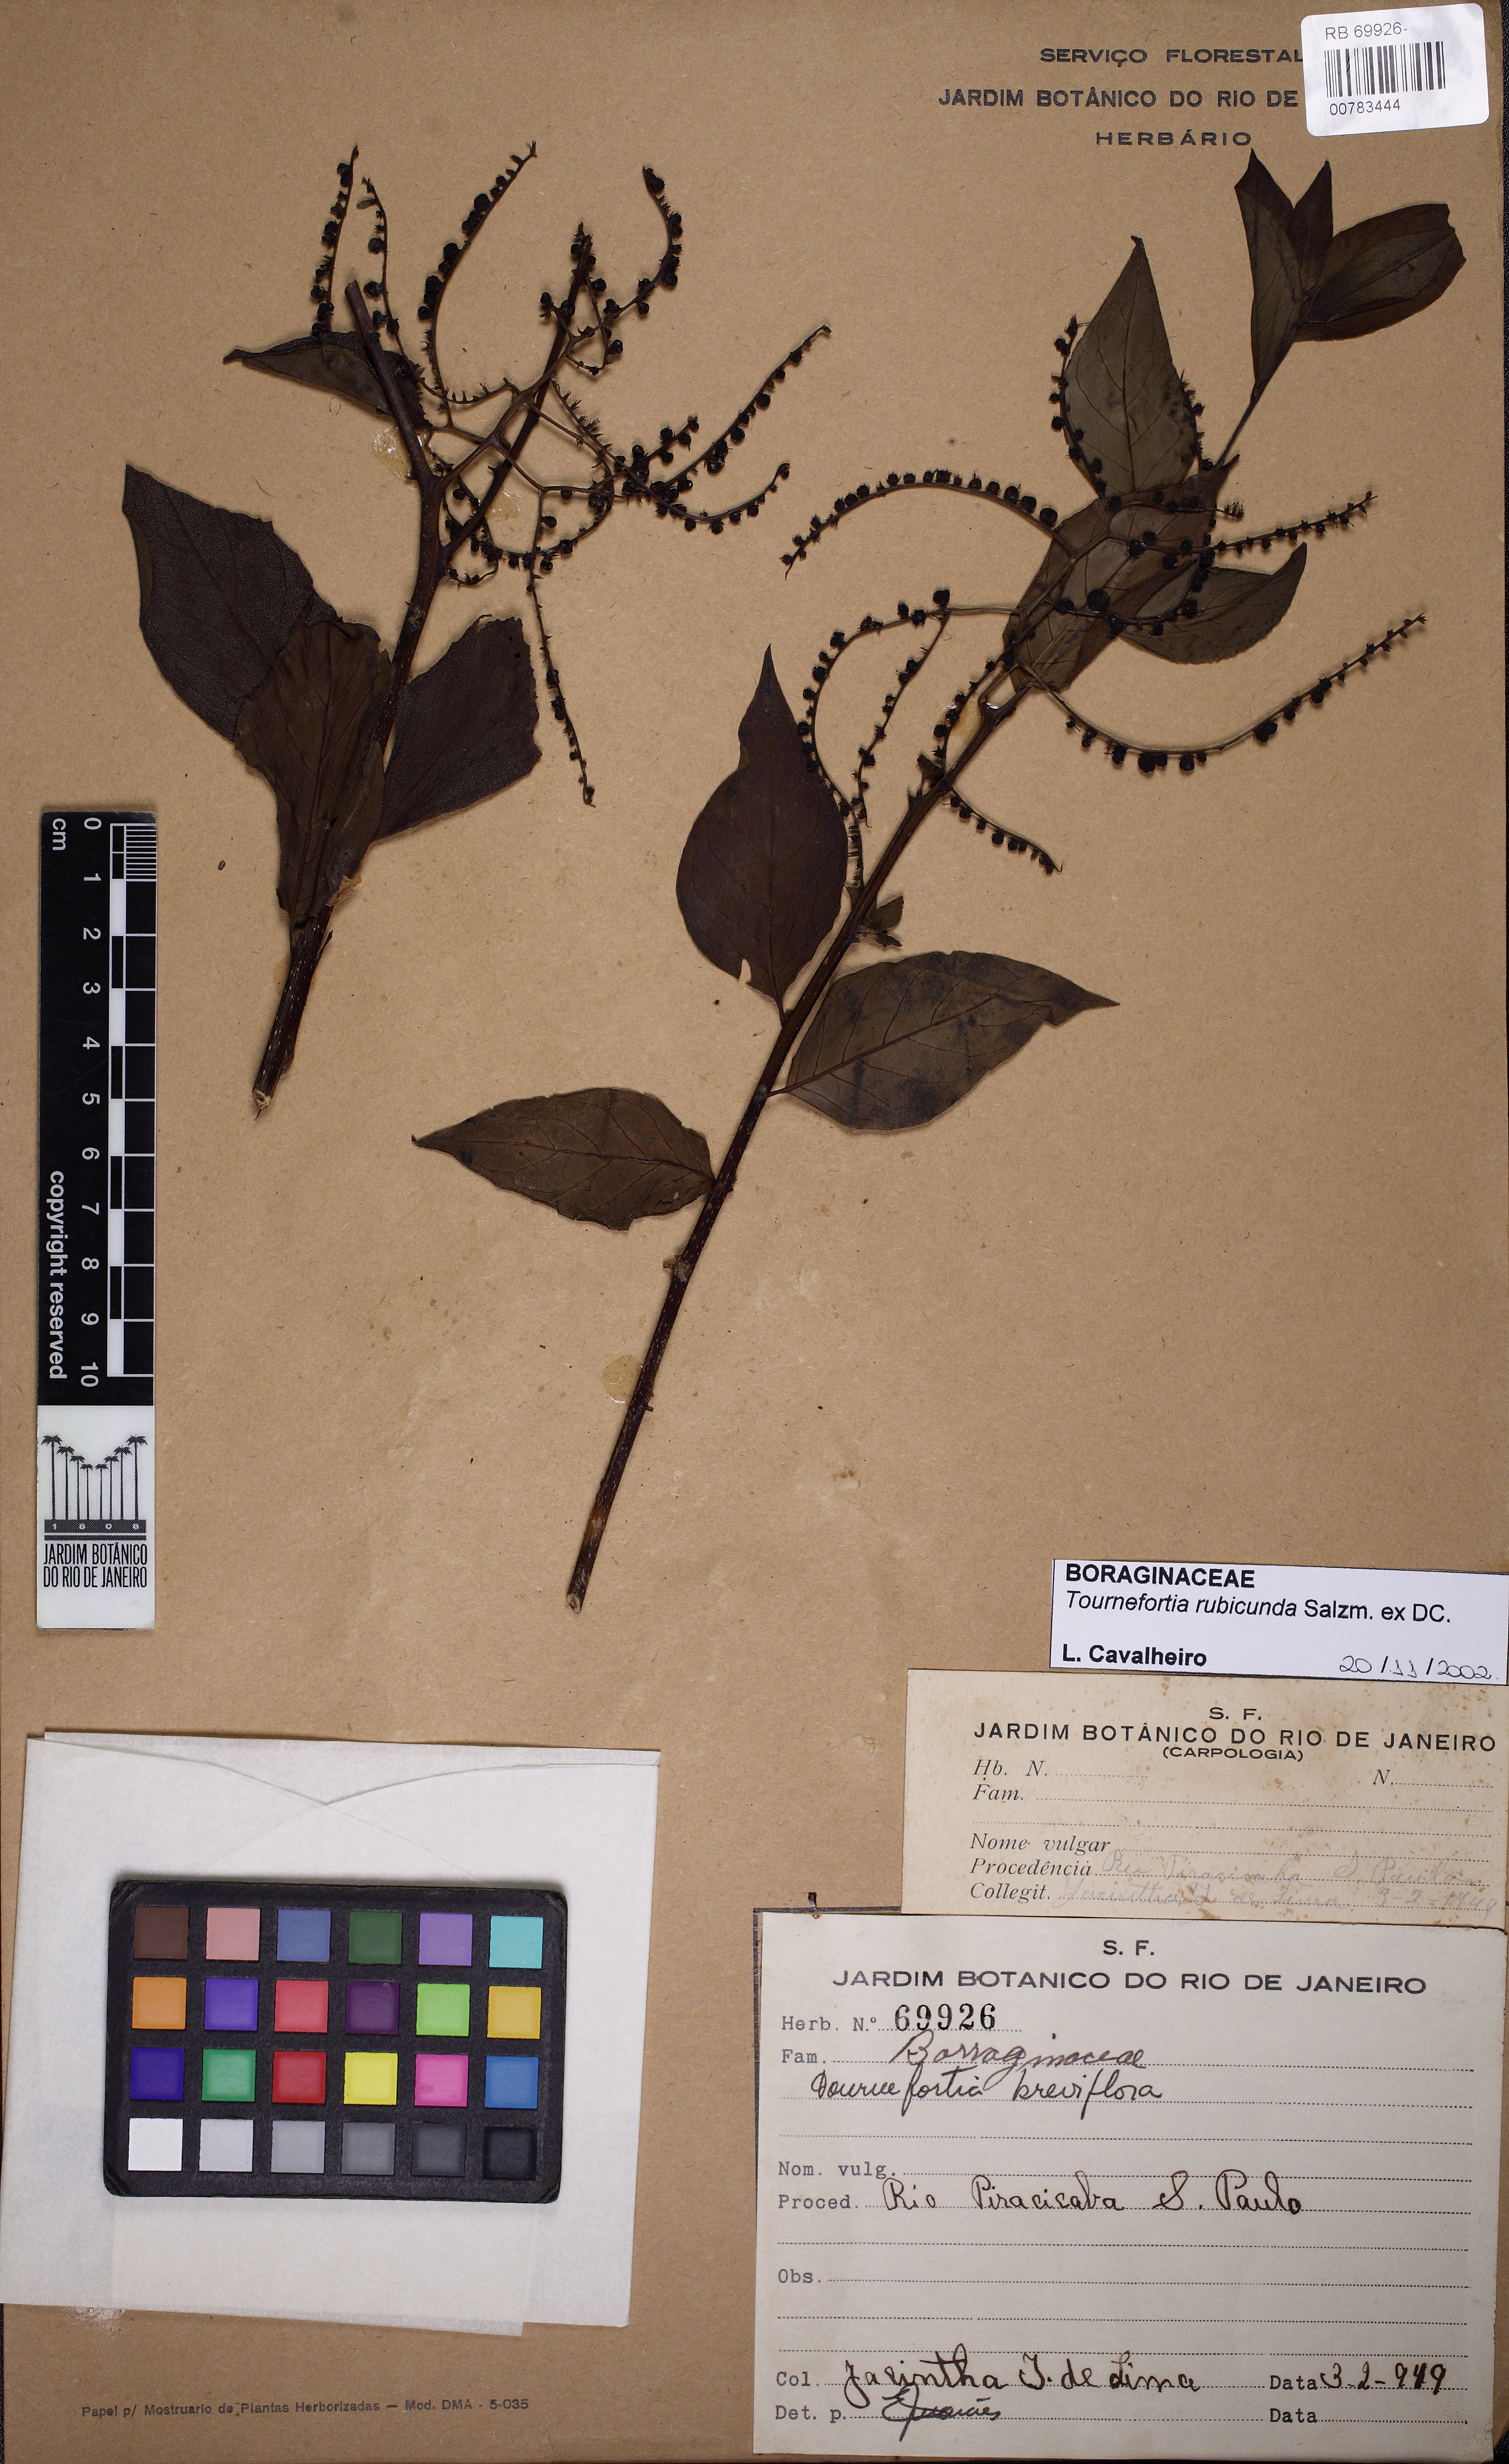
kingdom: Plantae
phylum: Tracheophyta
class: Magnoliopsida
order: Boraginales
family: Heliotropiaceae
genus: Myriopus
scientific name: Myriopus rubicundus
